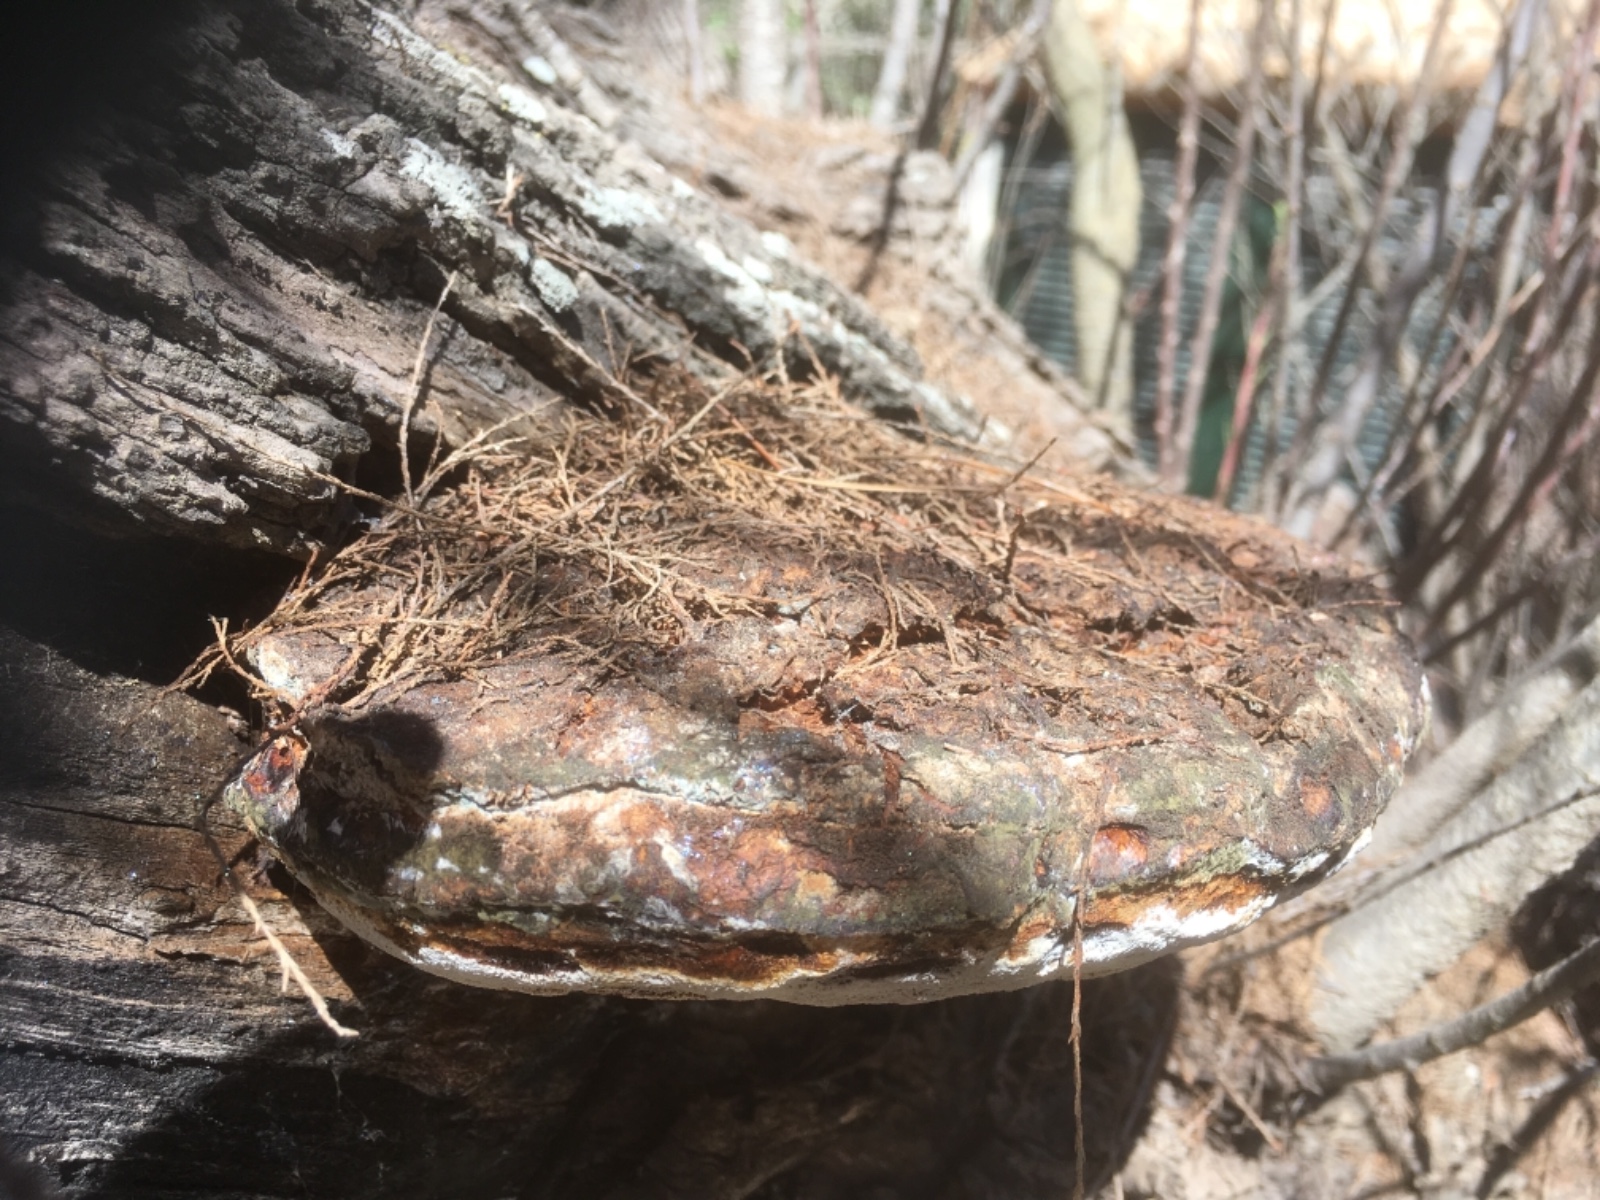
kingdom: Fungi
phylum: Basidiomycota
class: Agaricomycetes
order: Hymenochaetales
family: Hymenochaetaceae
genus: Inocutis
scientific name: Inocutis tamaricis
